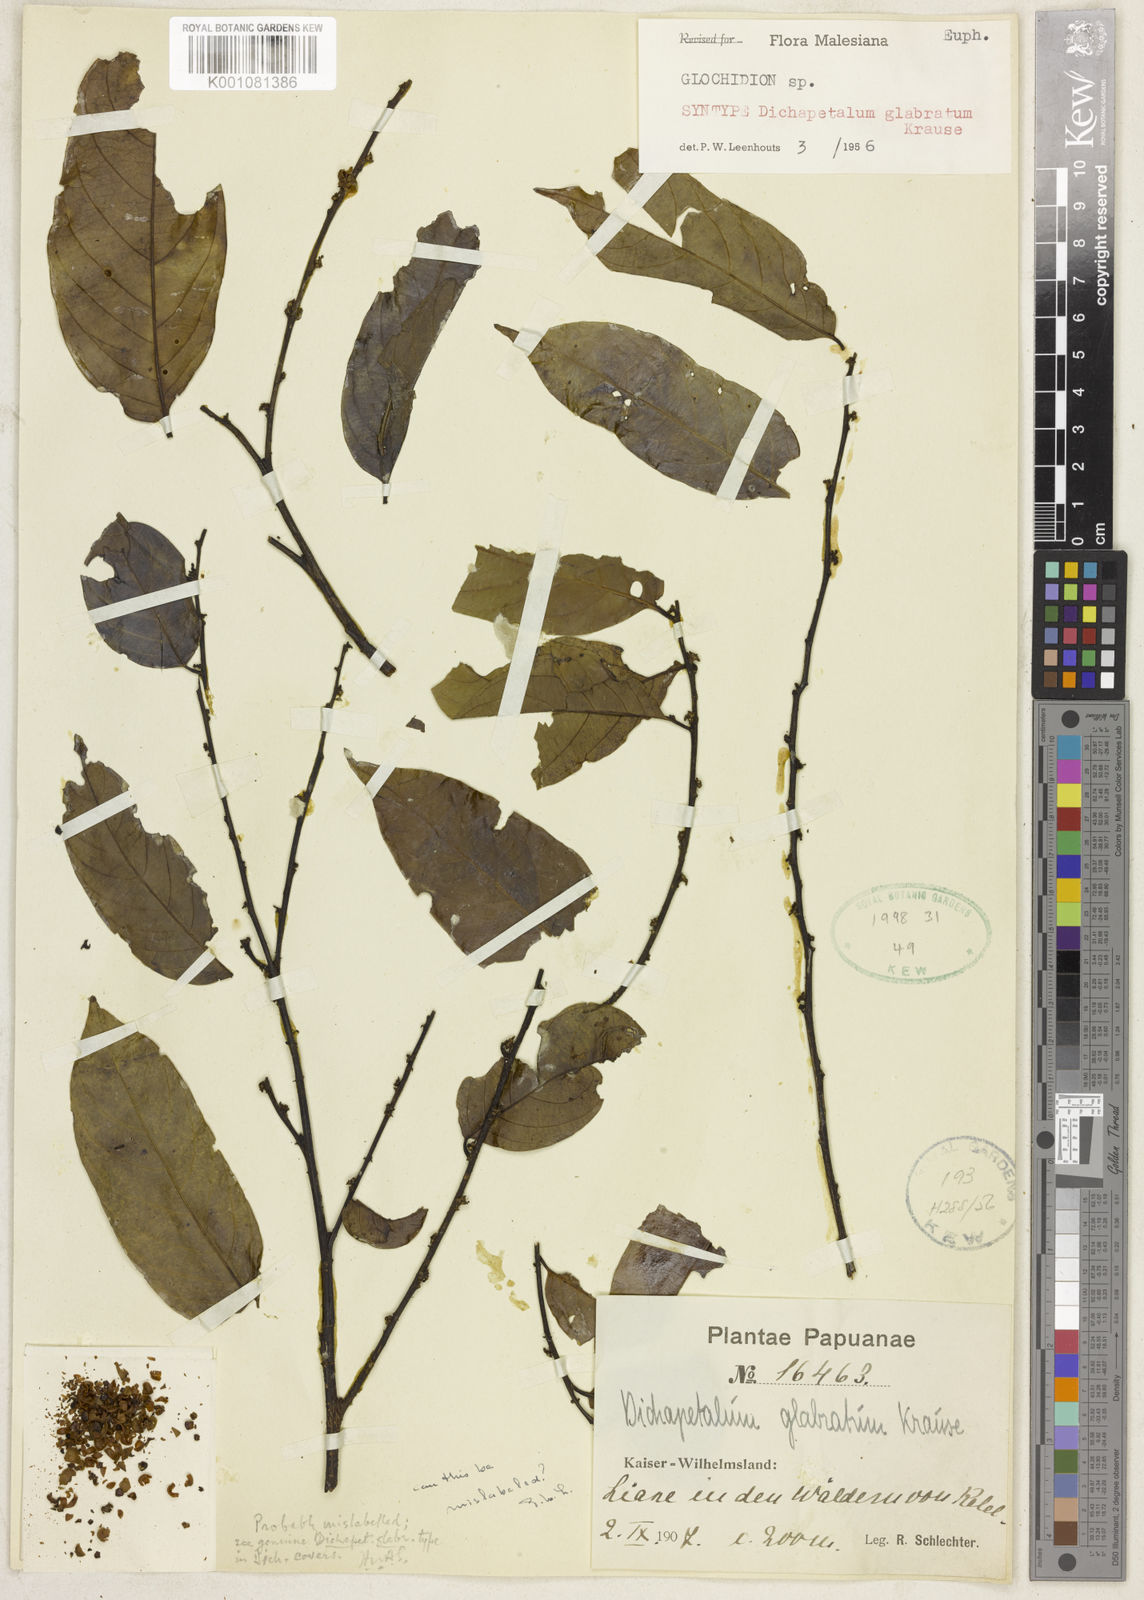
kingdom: Plantae
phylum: Tracheophyta
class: Magnoliopsida
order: Malpighiales
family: Phyllanthaceae
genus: Glochidion
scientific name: Glochidion lanceilimbum
